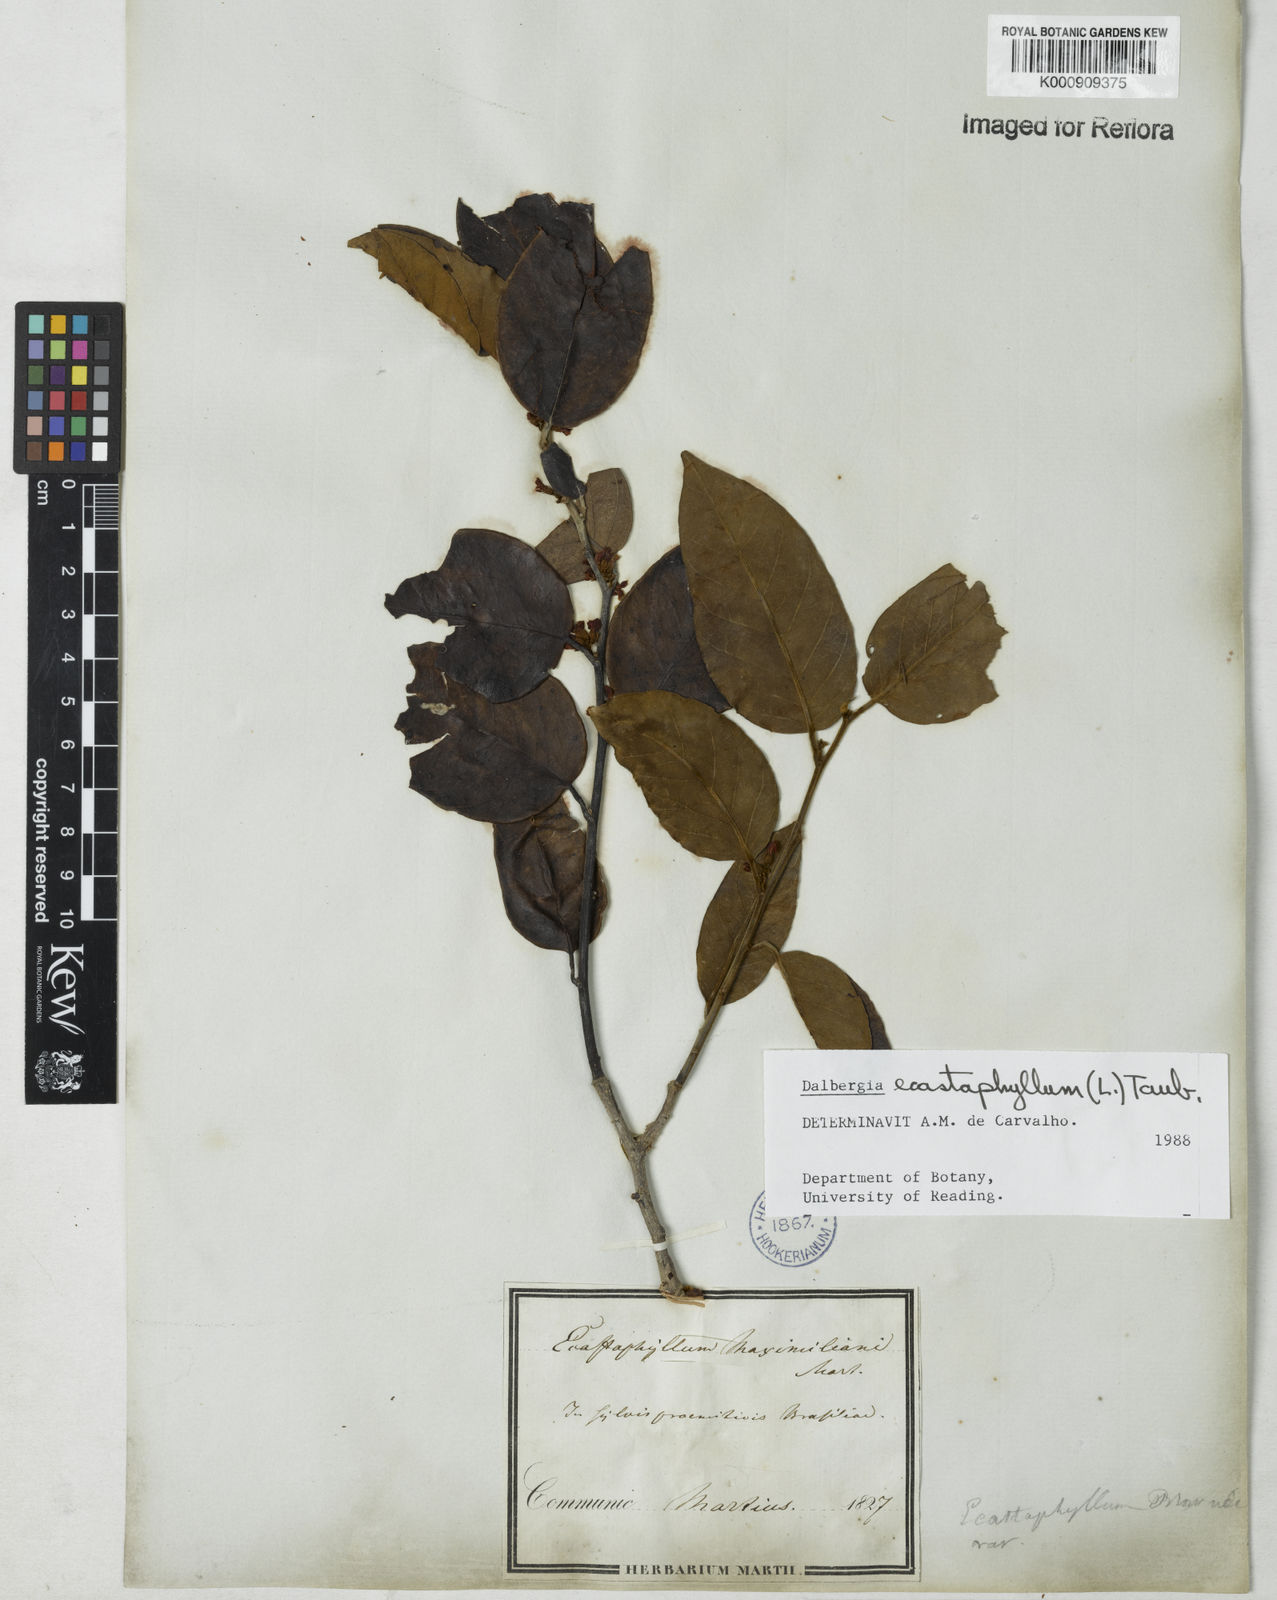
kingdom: Plantae
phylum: Tracheophyta
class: Magnoliopsida
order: Fabales
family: Fabaceae
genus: Dalbergia
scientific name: Dalbergia ecastaphyllum
